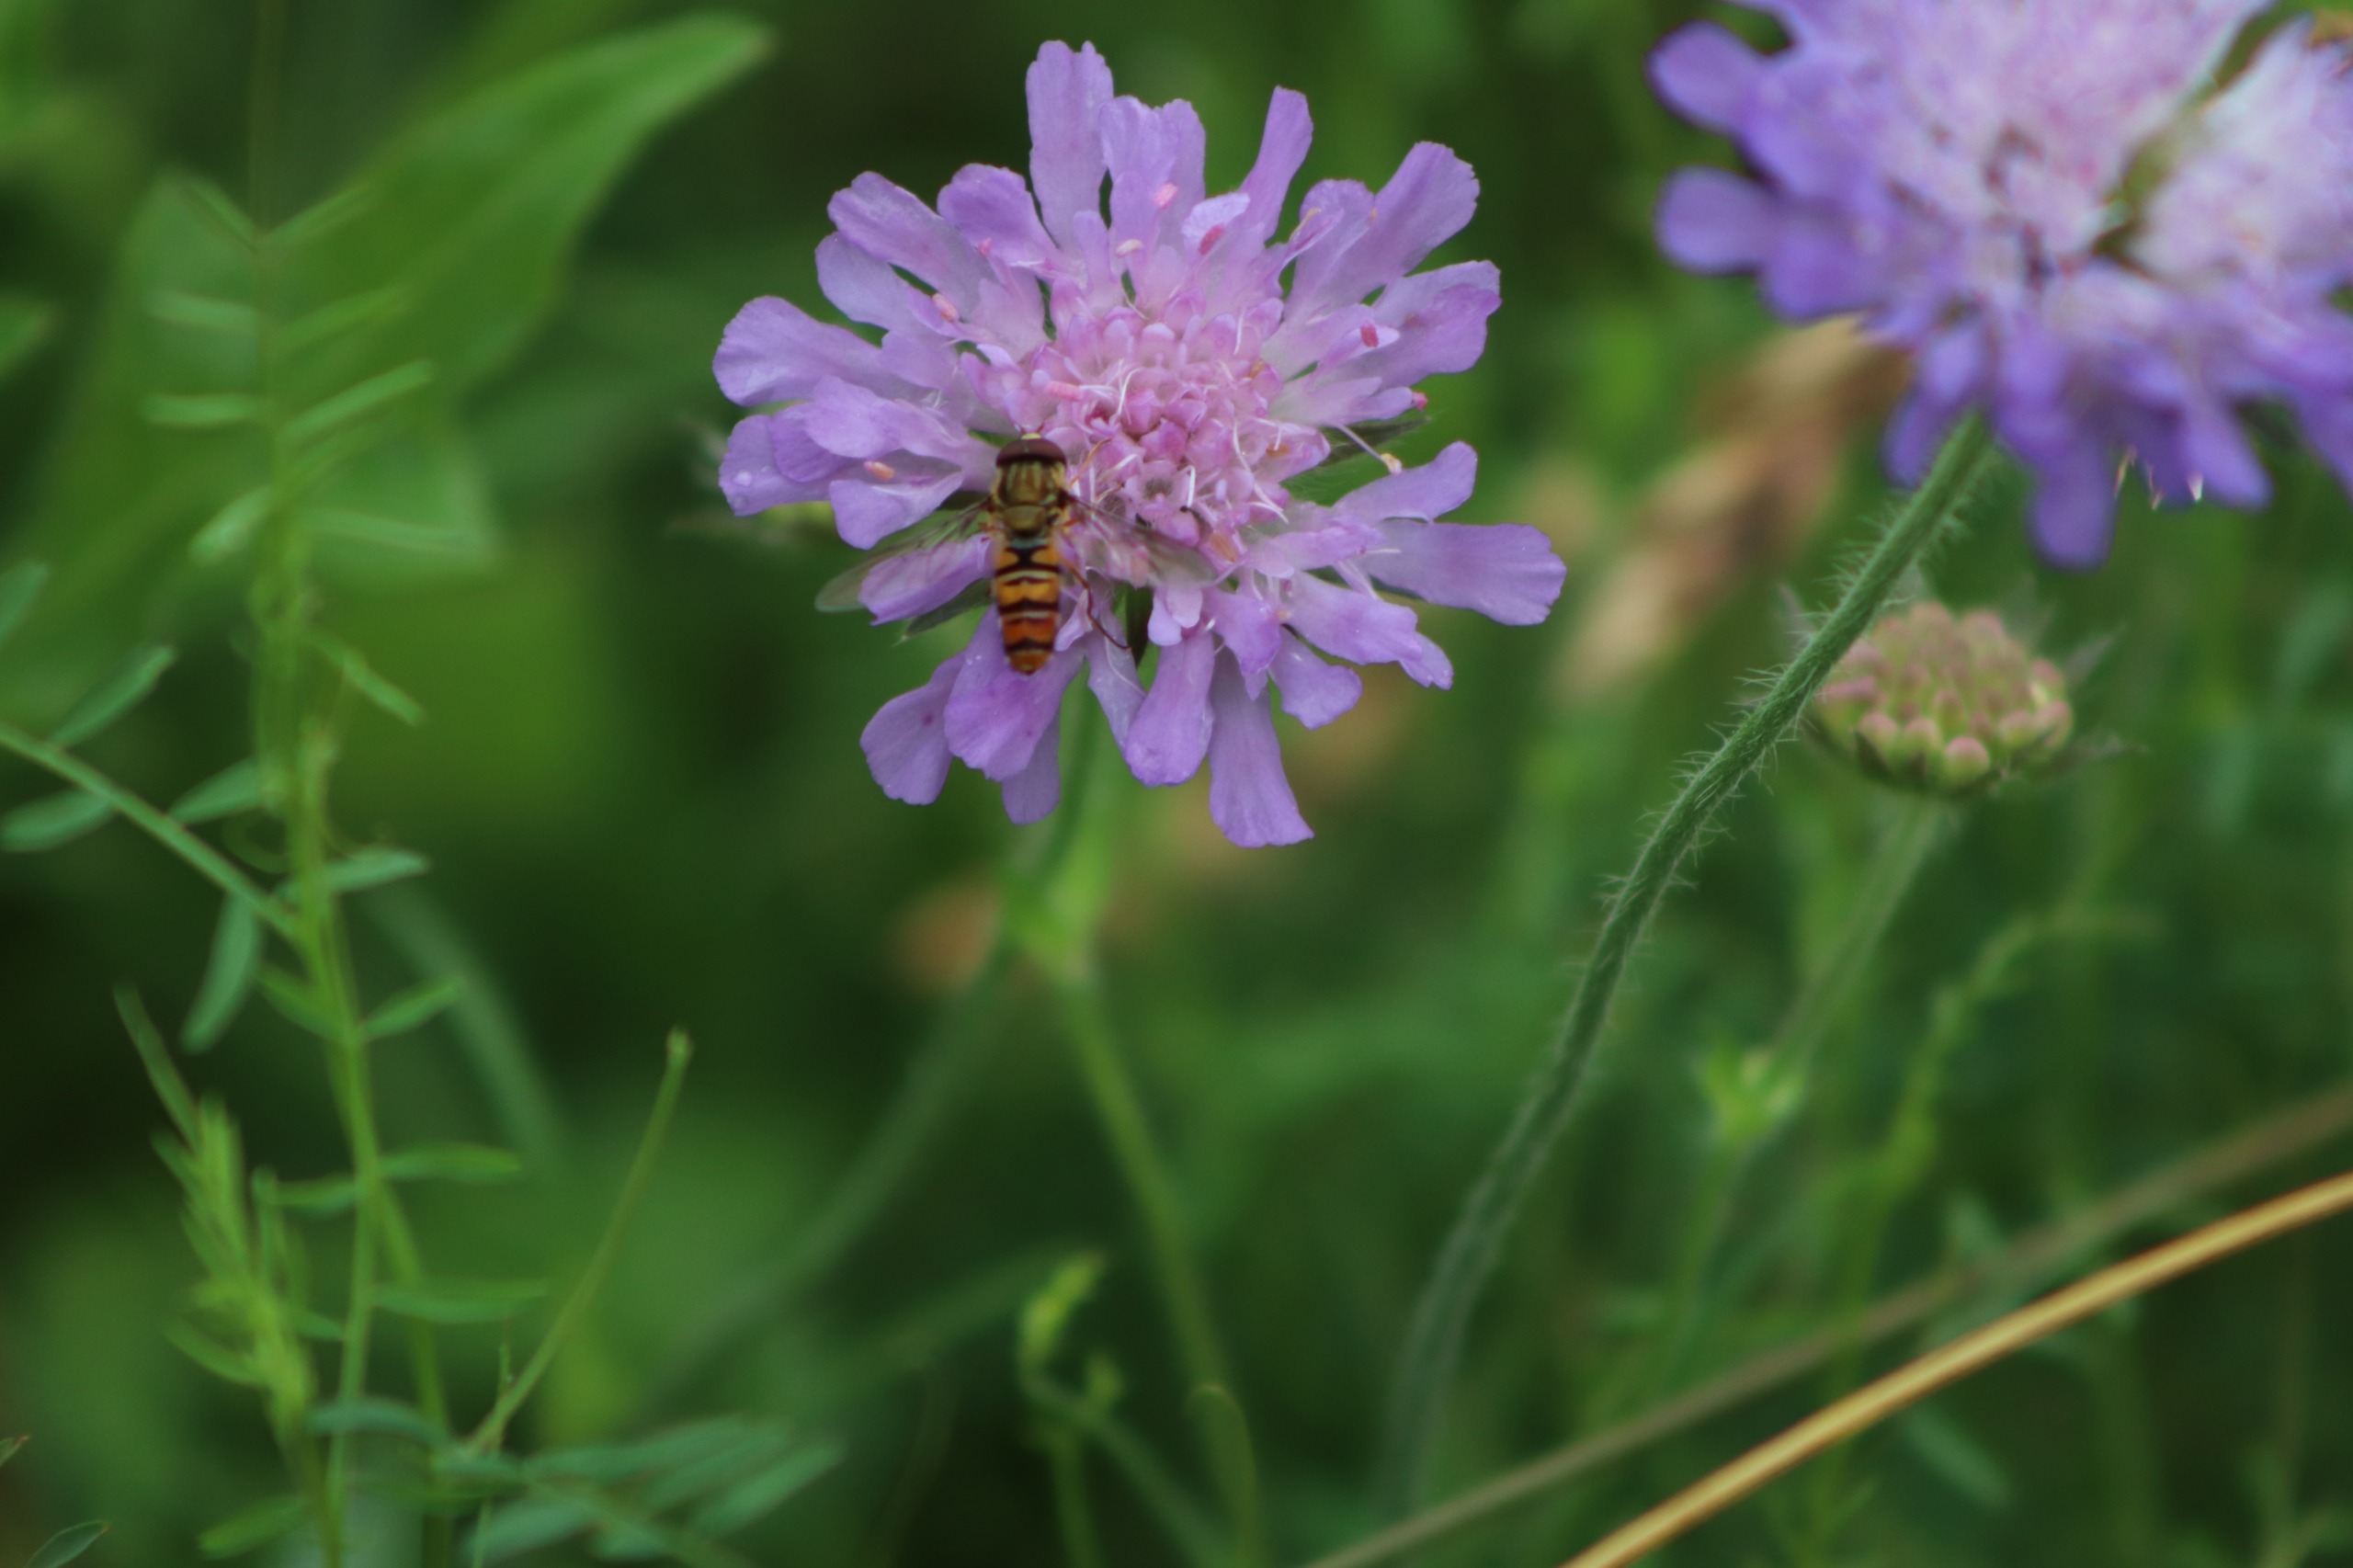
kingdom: Plantae
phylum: Tracheophyta
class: Magnoliopsida
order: Dipsacales
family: Caprifoliaceae
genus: Knautia
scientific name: Knautia arvensis
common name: Blåhat
